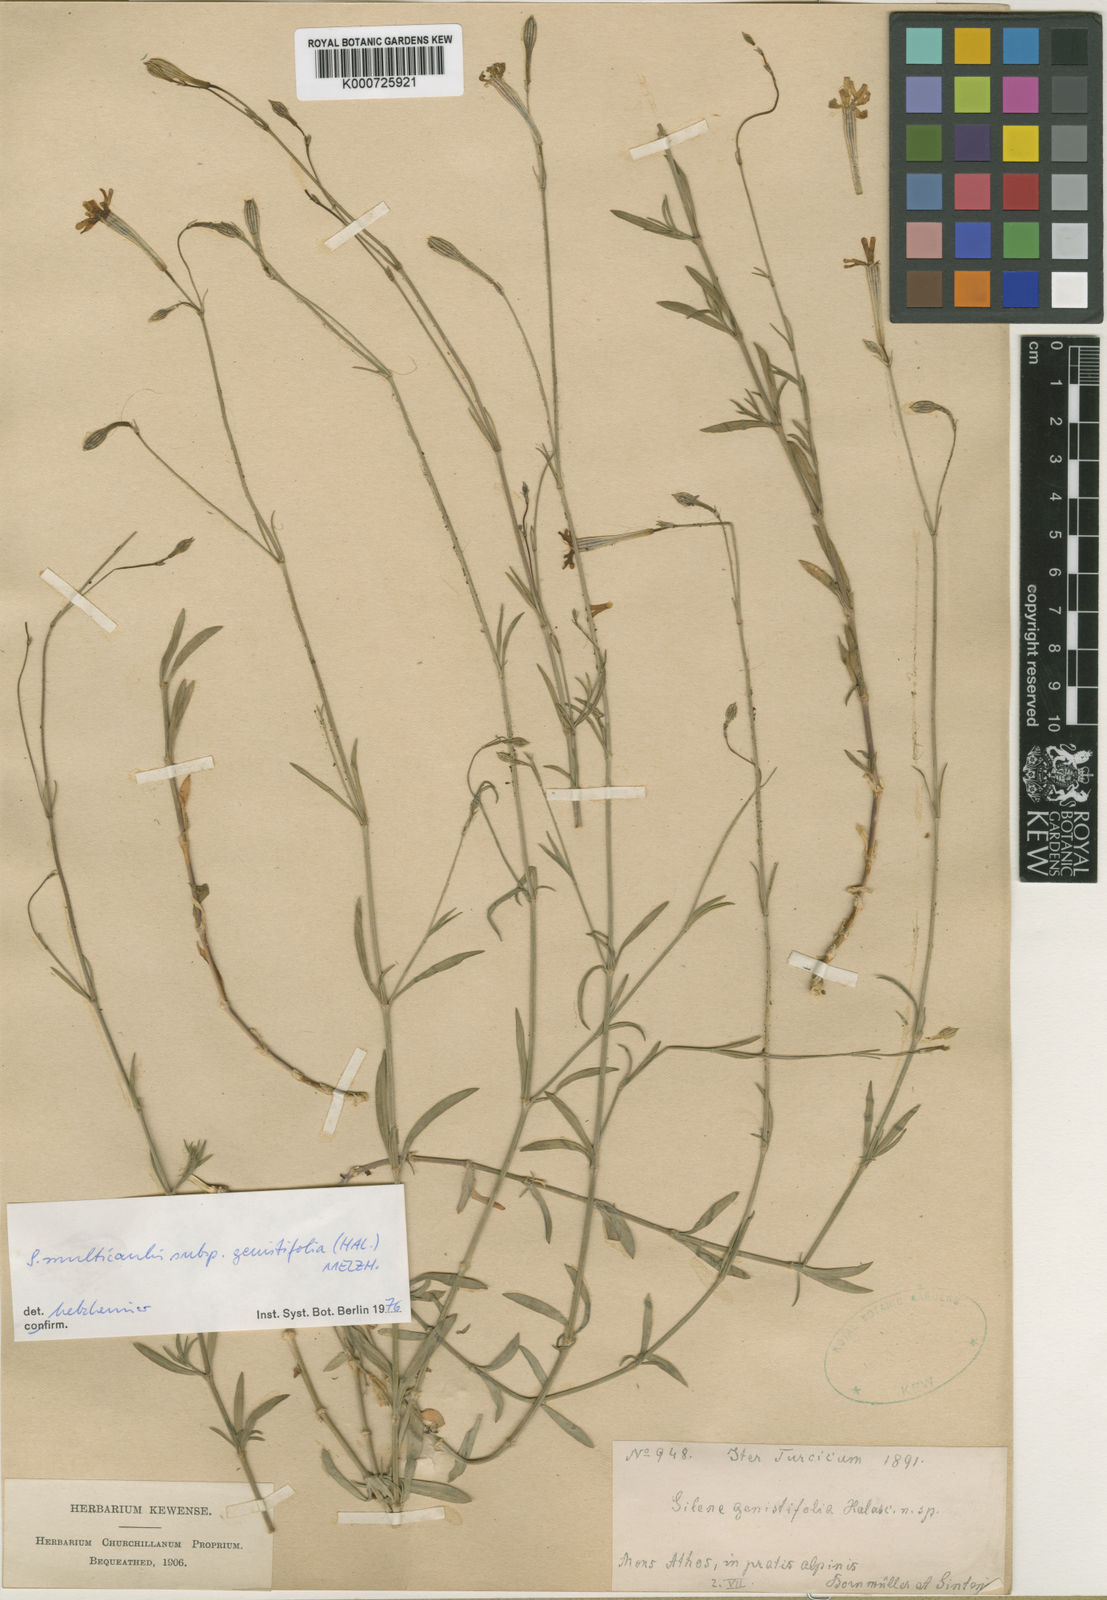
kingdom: Plantae
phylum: Tracheophyta
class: Magnoliopsida
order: Caryophyllales
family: Caryophyllaceae
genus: Silene
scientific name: Silene
